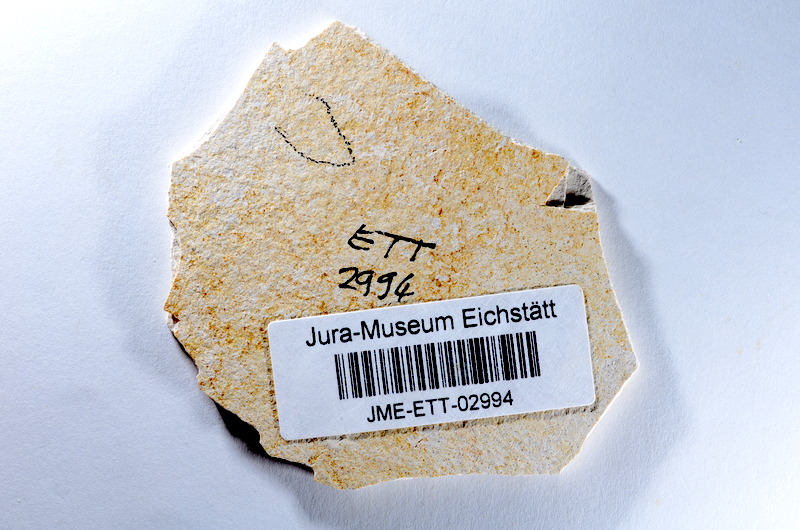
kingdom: Animalia
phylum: Chordata
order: Salmoniformes
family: Orthogonikleithridae
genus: Orthogonikleithrus
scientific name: Orthogonikleithrus hoelli
